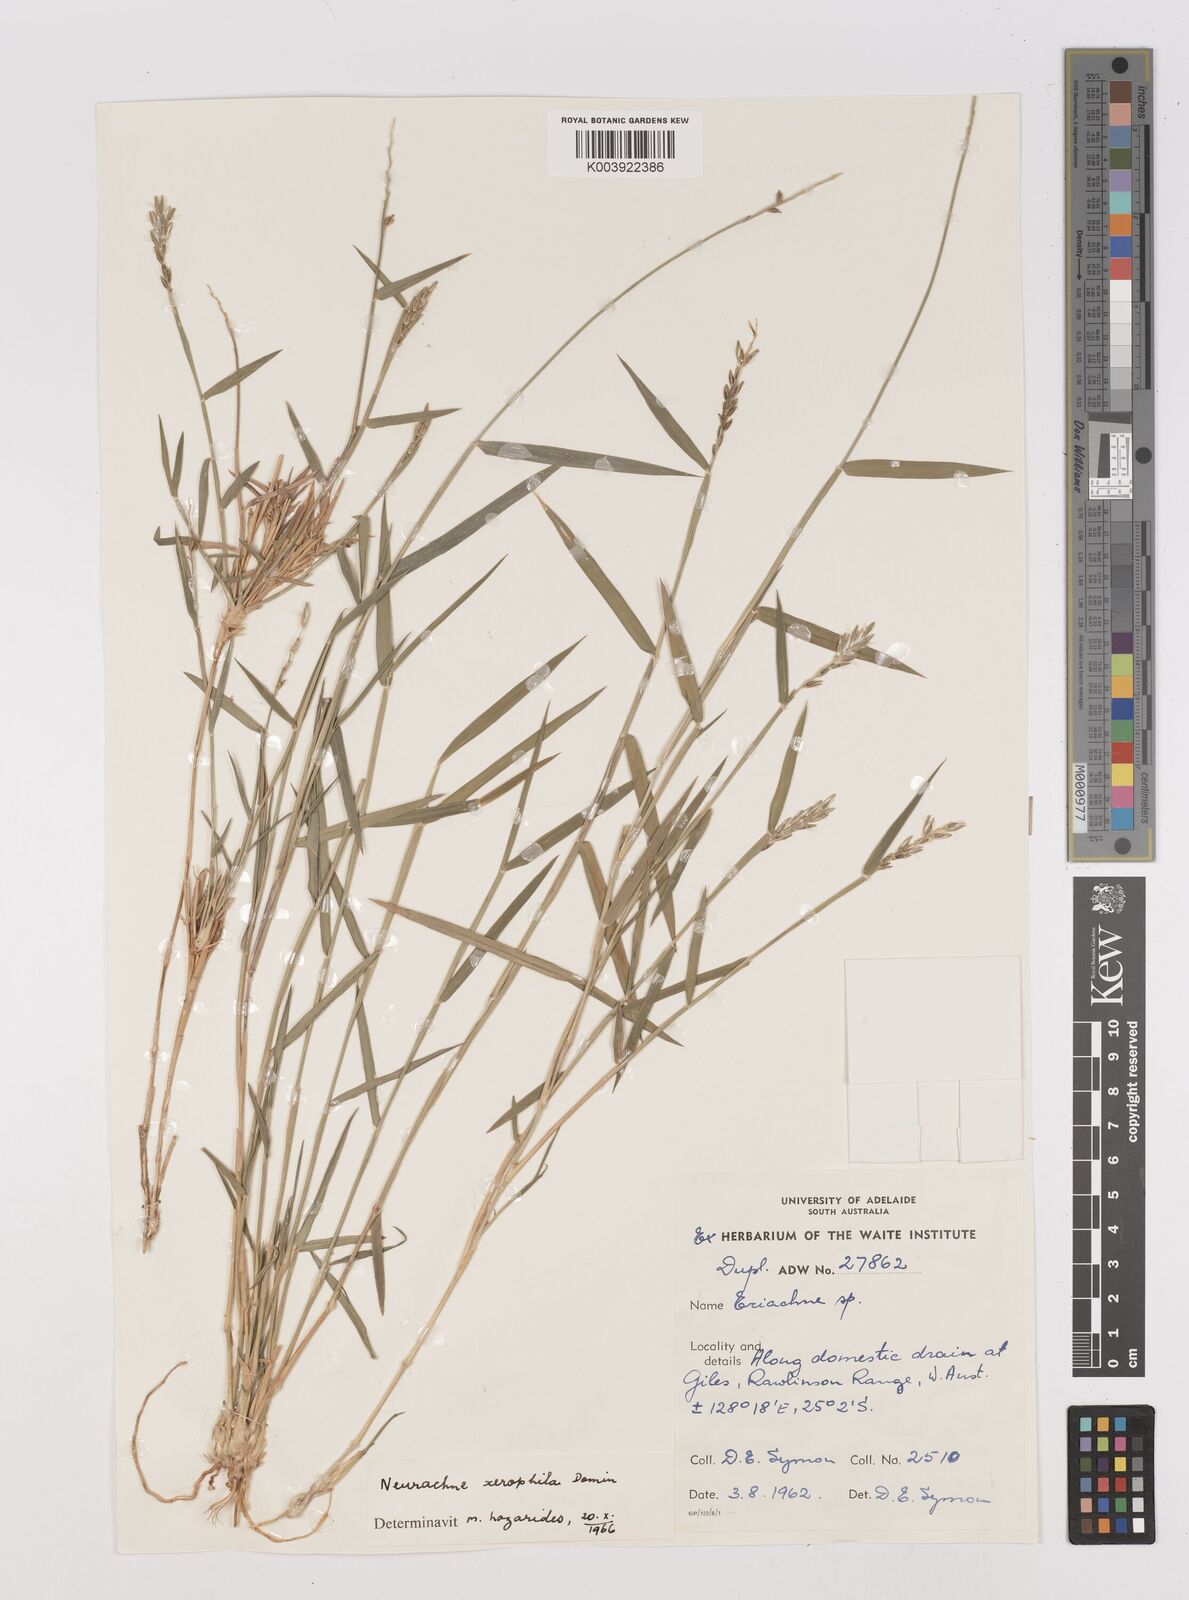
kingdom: Plantae
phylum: Tracheophyta
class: Liliopsida
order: Poales
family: Poaceae
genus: Thyridolepis
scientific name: Thyridolepis xerophila
